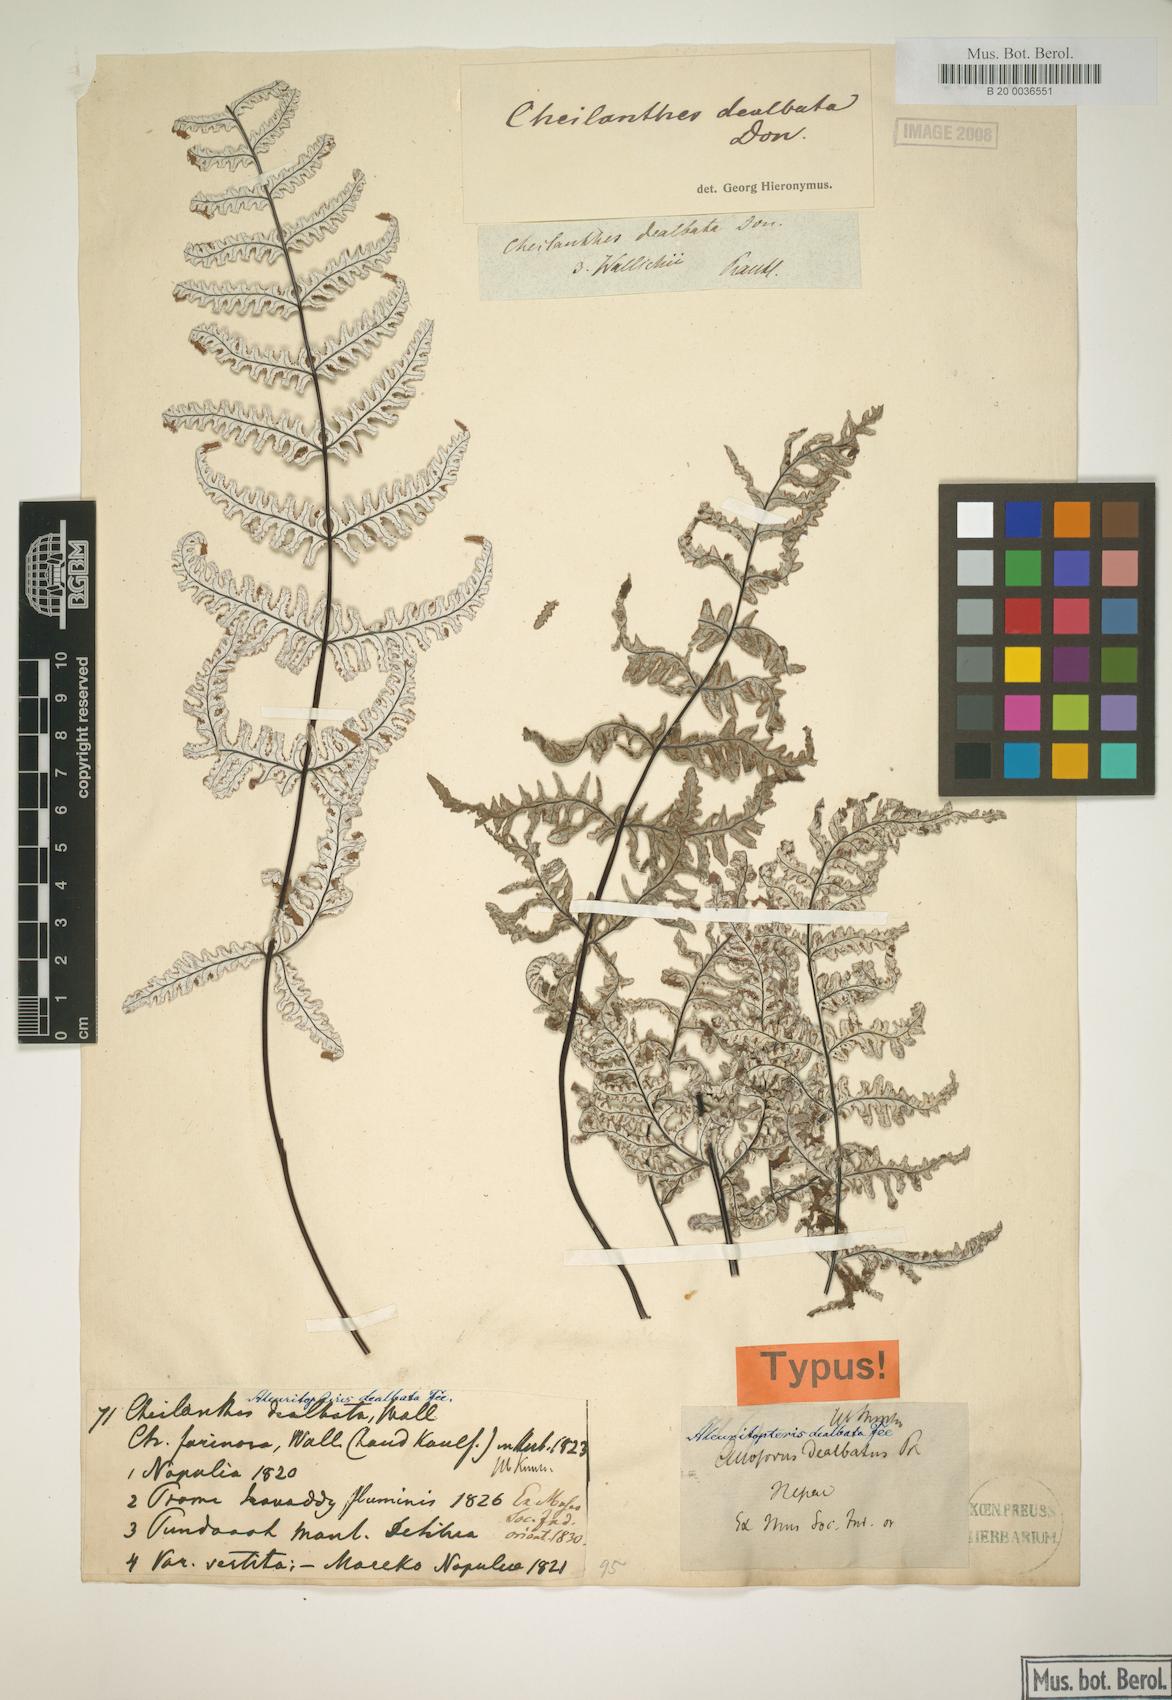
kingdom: Plantae
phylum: Tracheophyta
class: Polypodiopsida
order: Polypodiales
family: Pteridaceae
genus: Argyrochosma
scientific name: Argyrochosma dealbata
